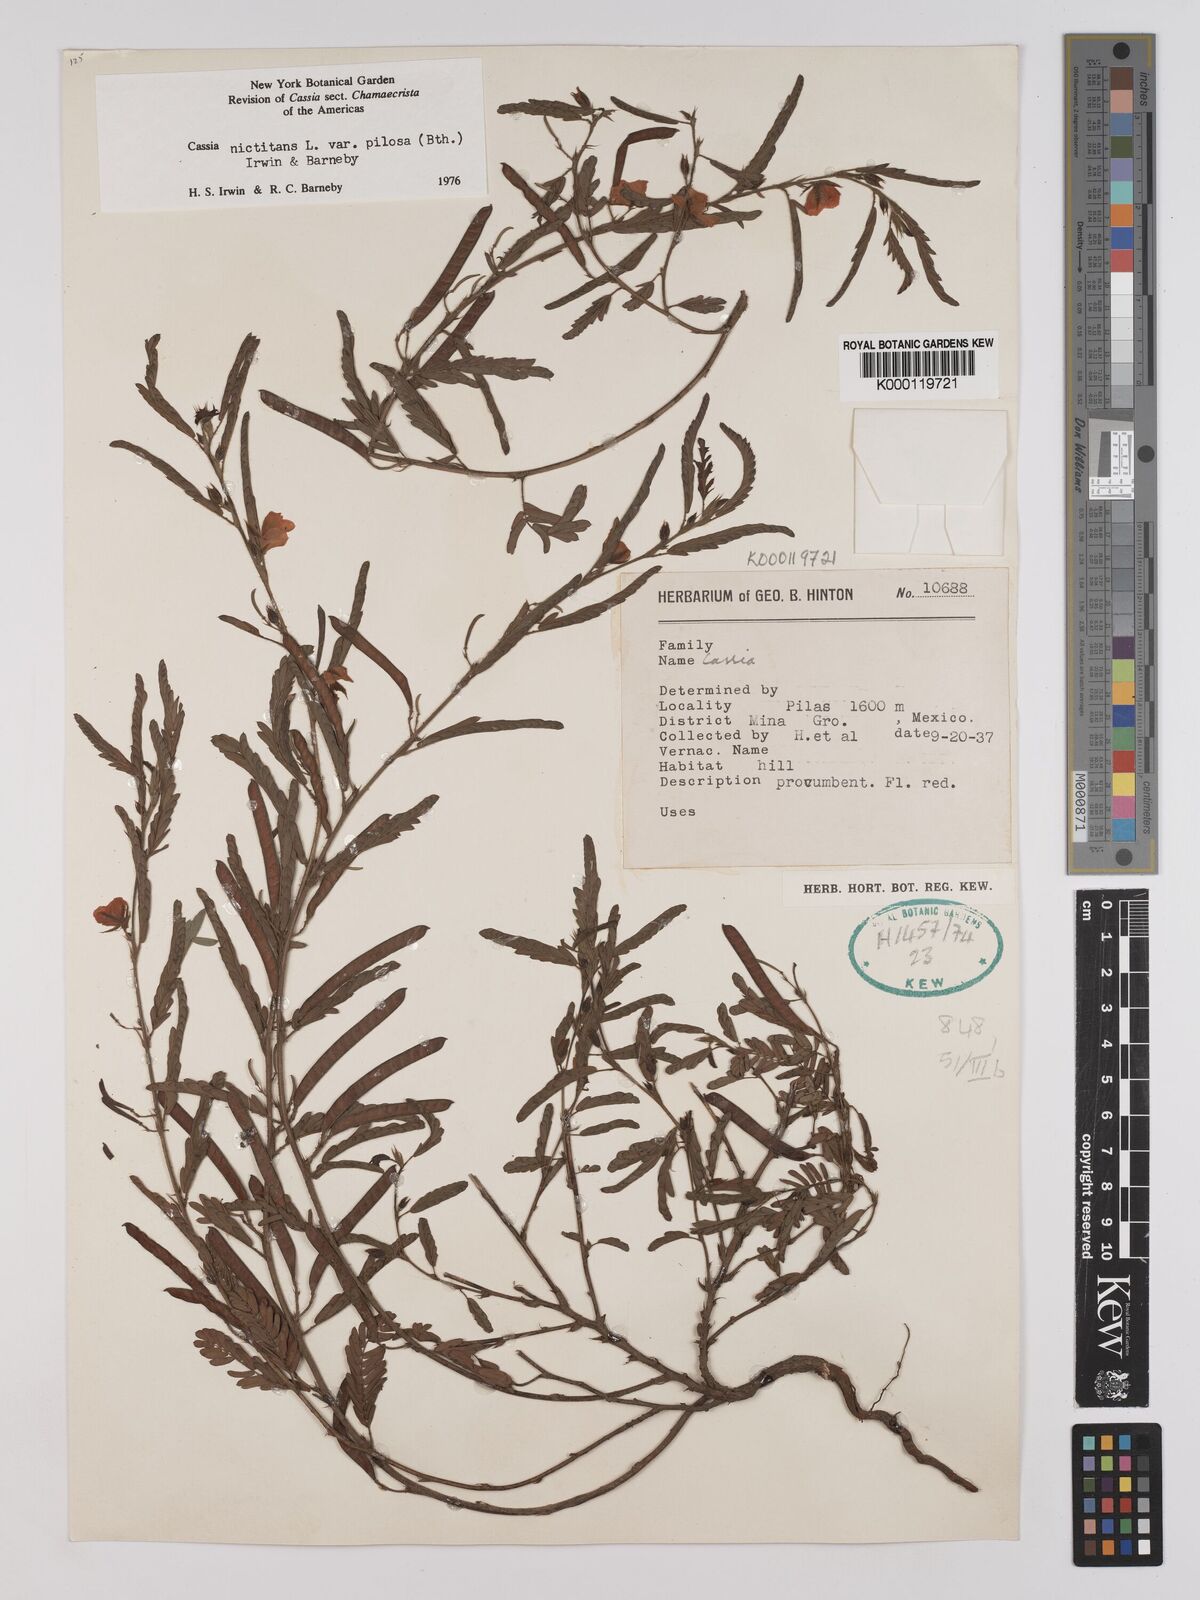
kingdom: Plantae
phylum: Tracheophyta
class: Magnoliopsida
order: Fabales
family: Fabaceae
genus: Chamaecrista
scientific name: Chamaecrista nictitans
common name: Sensitive cassia
